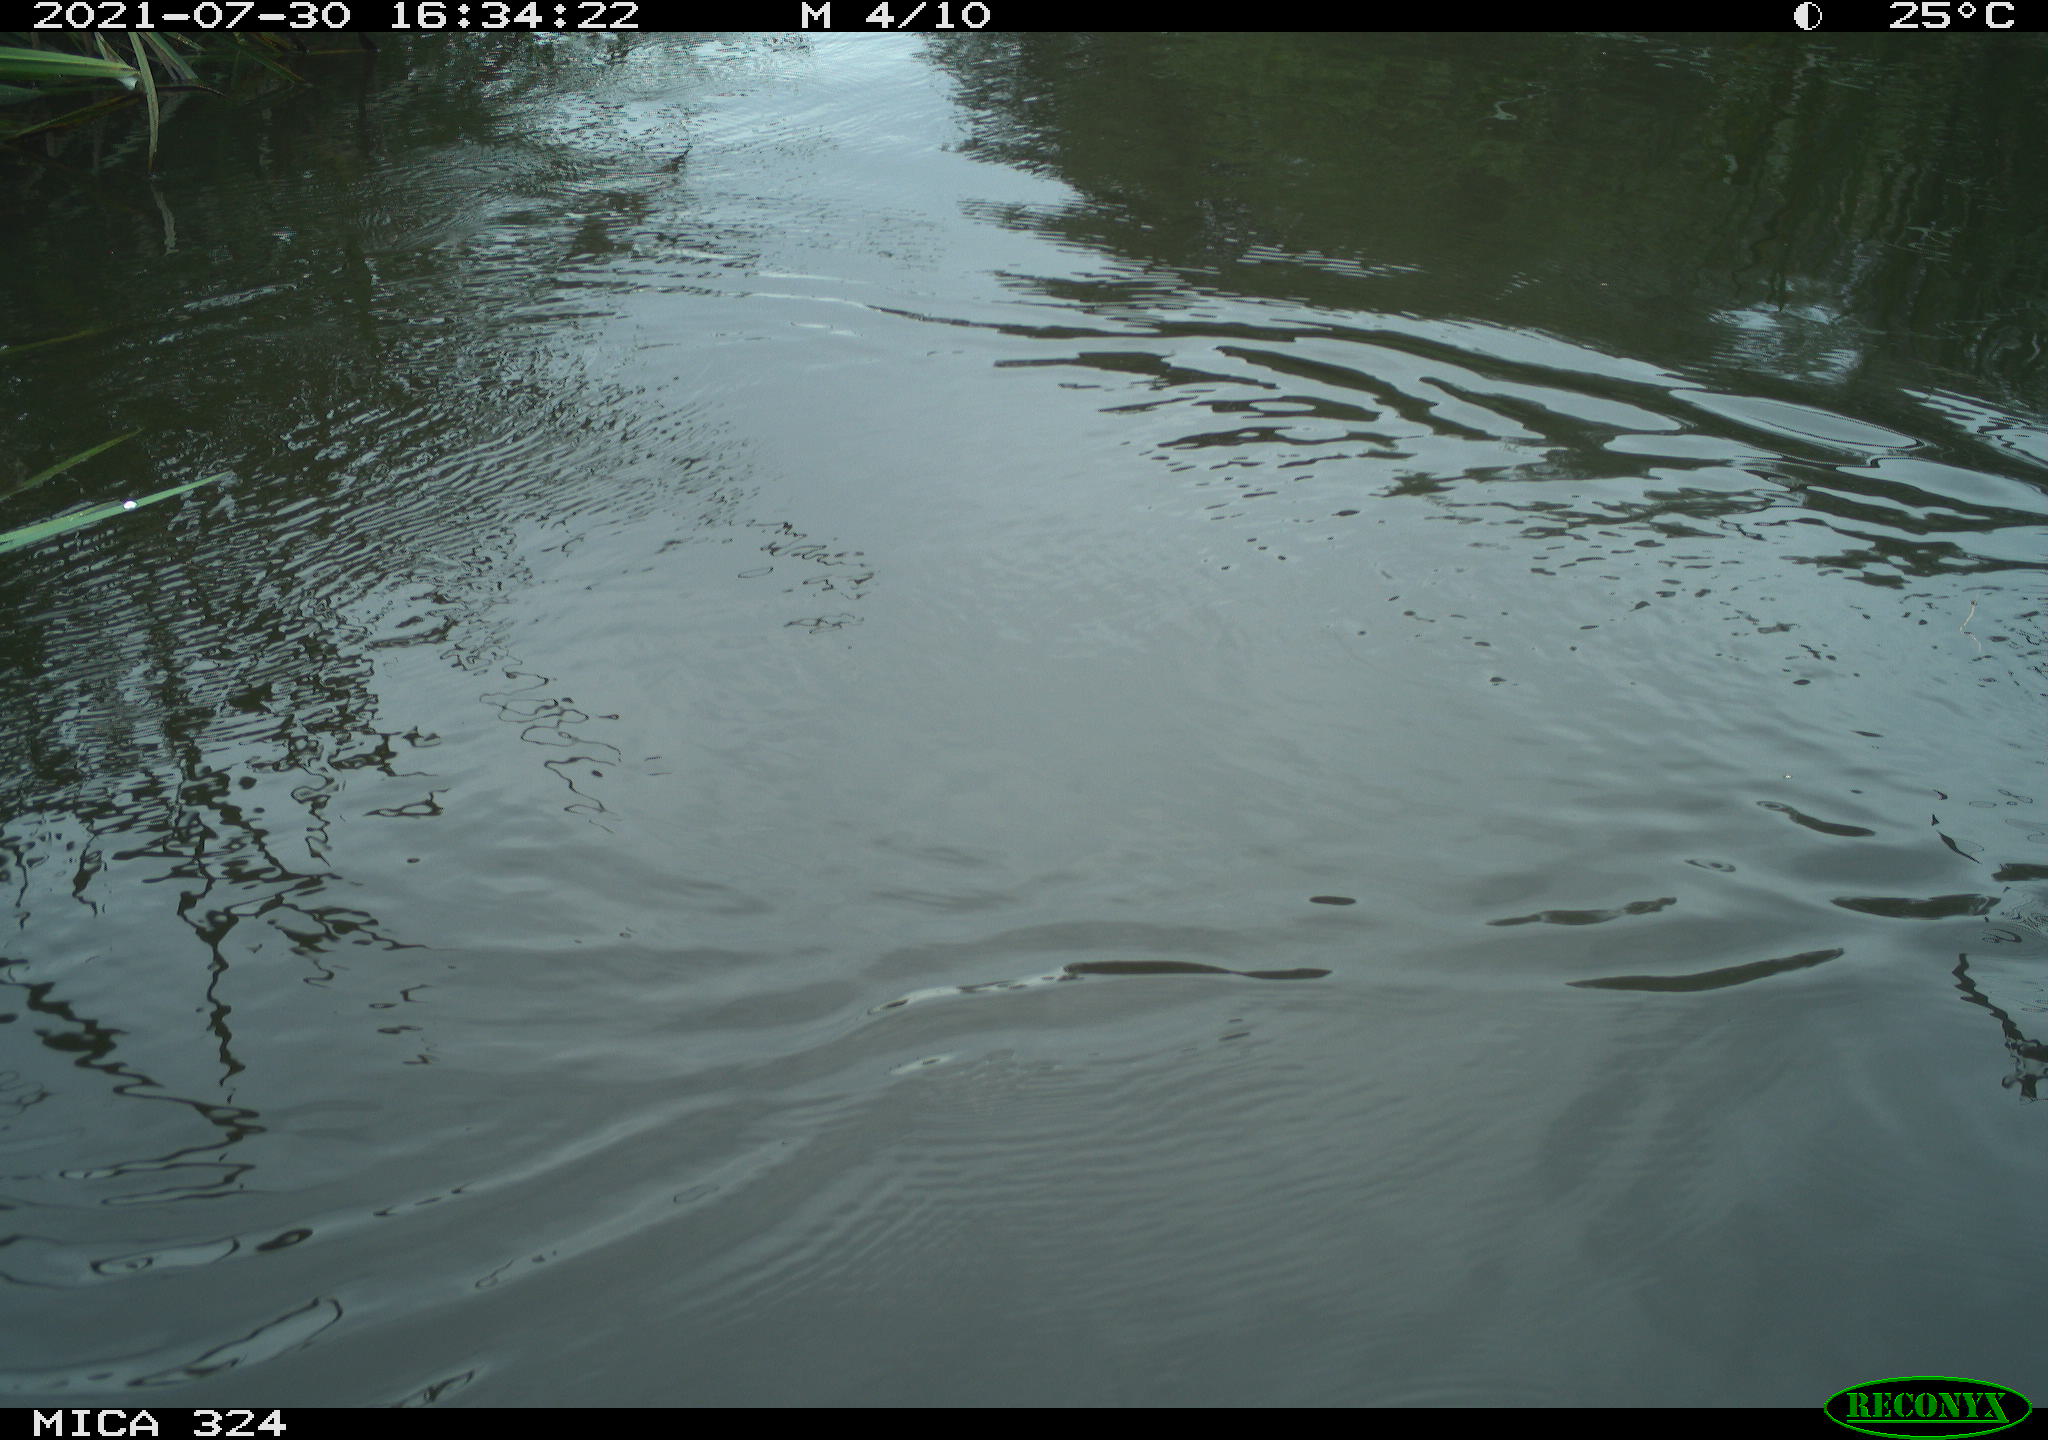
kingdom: Animalia
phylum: Chordata
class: Aves
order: Gruiformes
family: Rallidae
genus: Gallinula
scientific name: Gallinula chloropus
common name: Common moorhen
